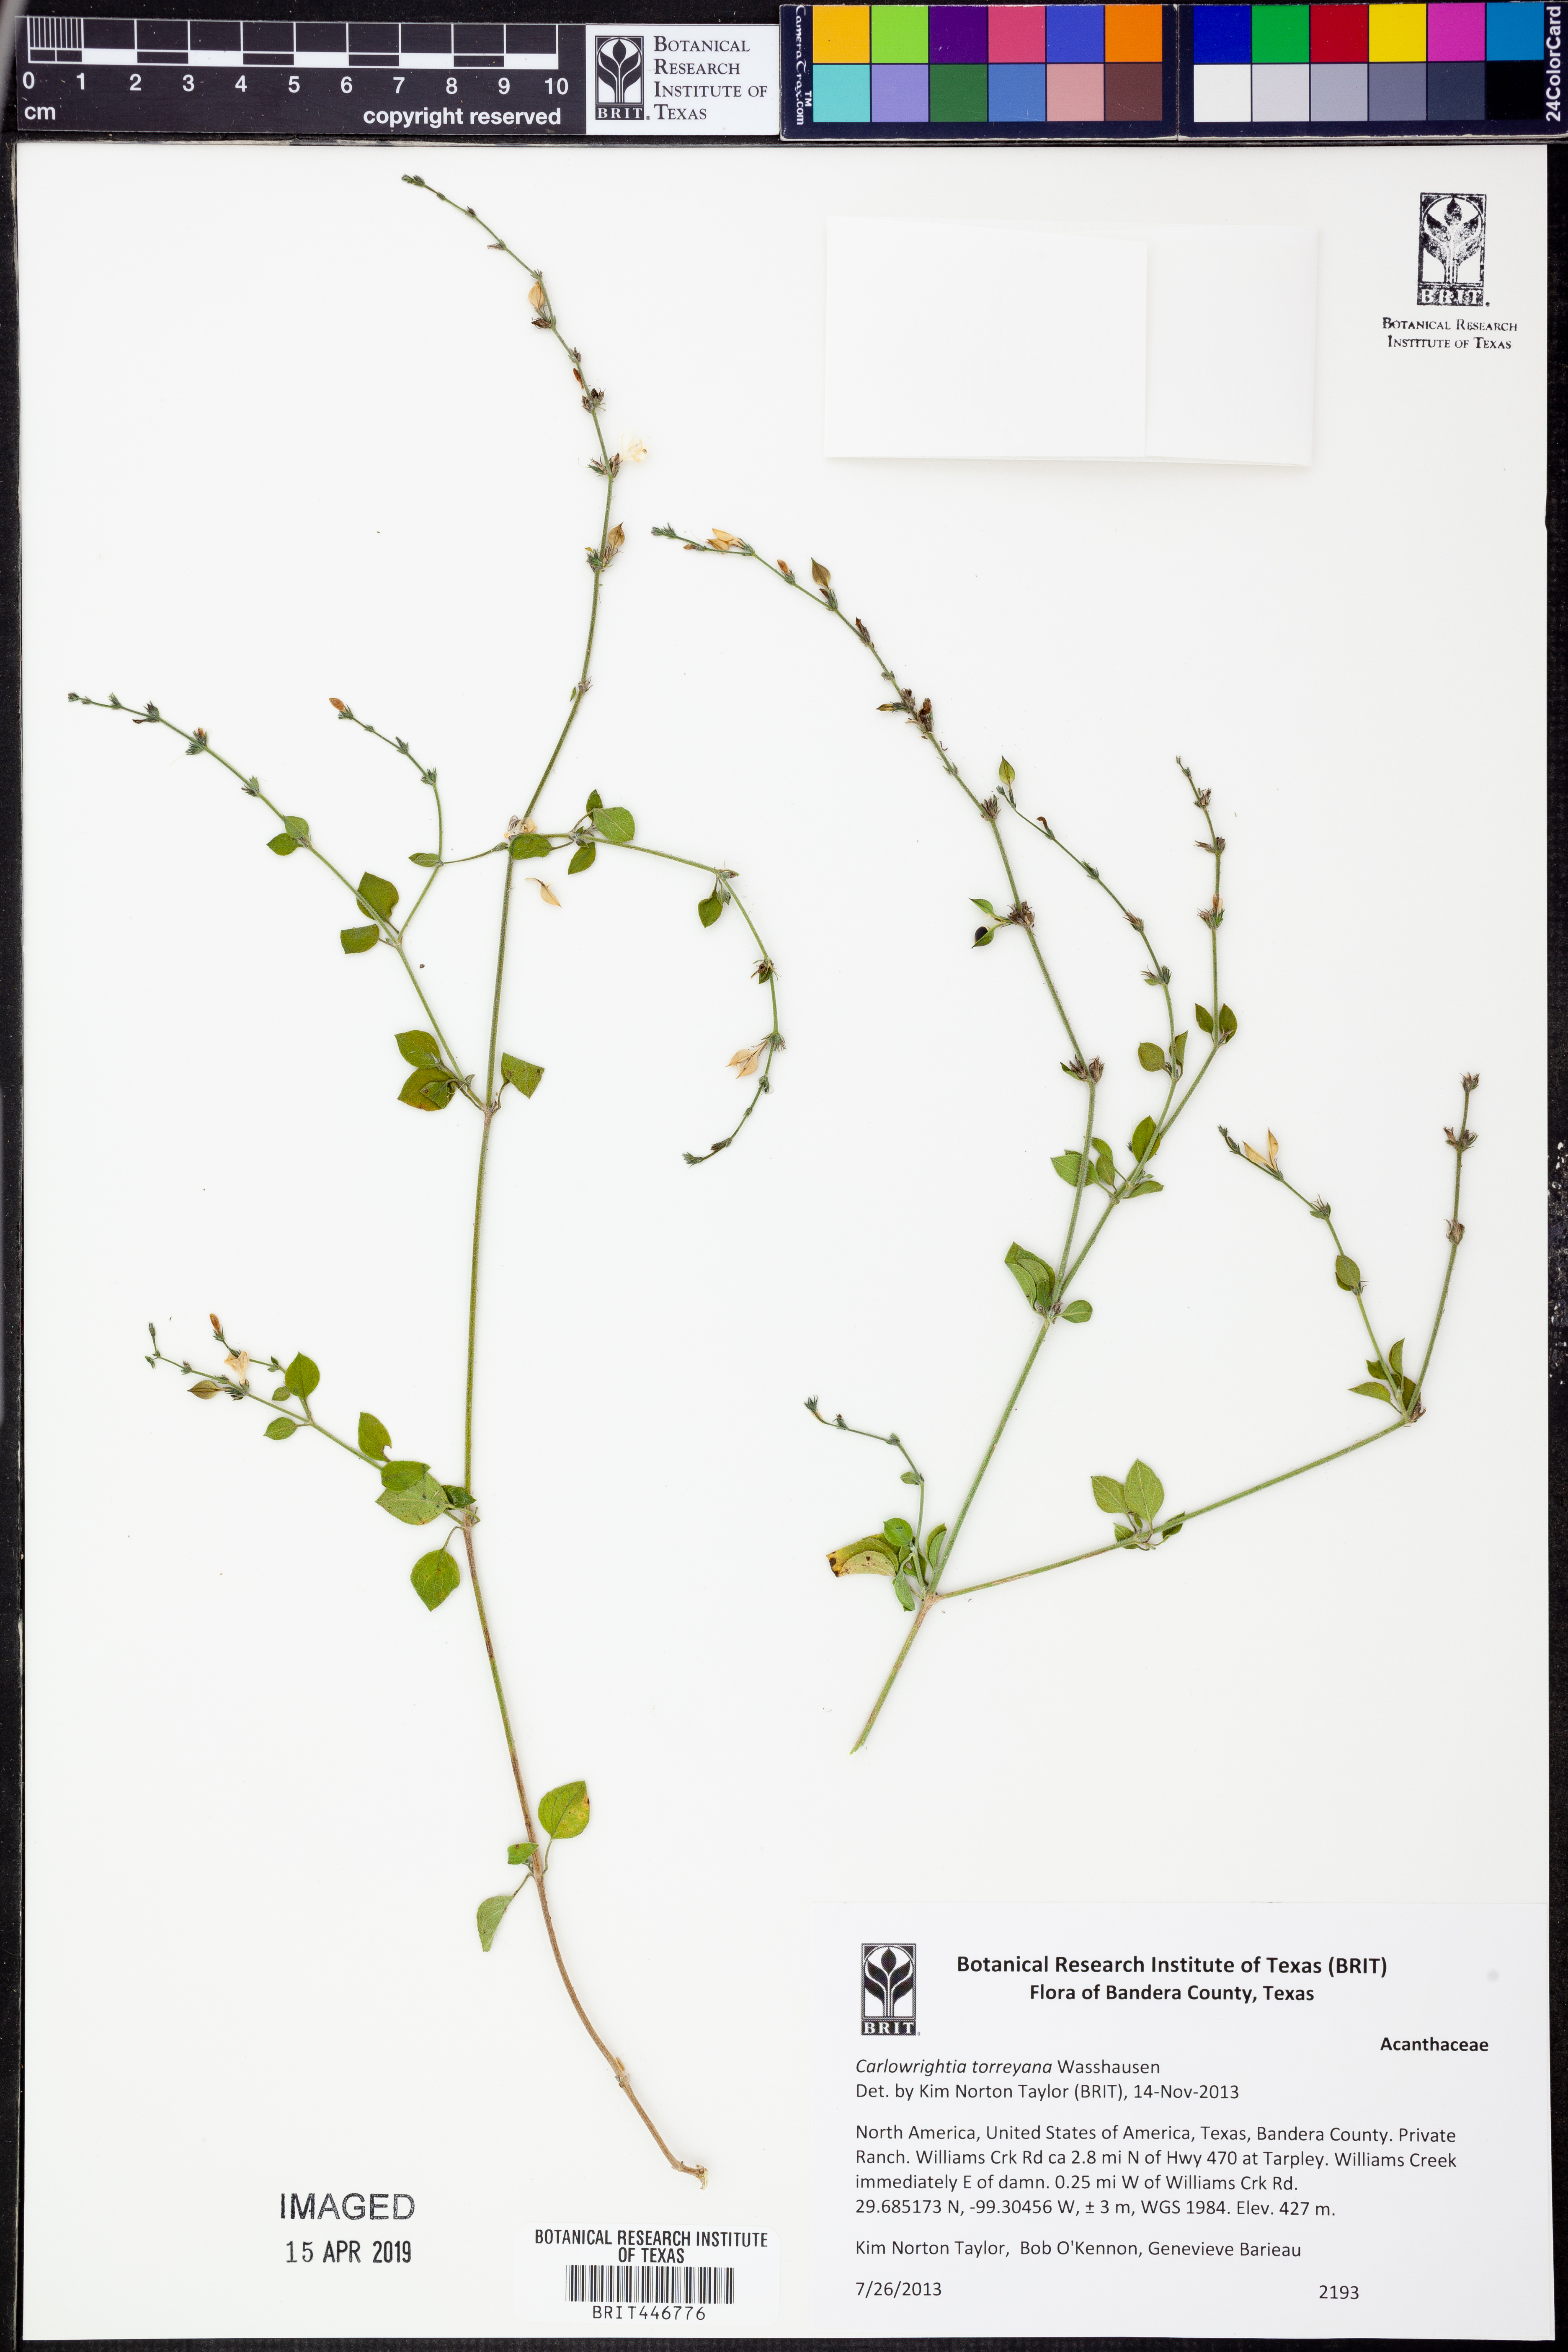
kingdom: Plantae
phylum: Tracheophyta
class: Magnoliopsida
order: Lamiales
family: Acanthaceae
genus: Carlowrightia
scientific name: Carlowrightia torreyana
